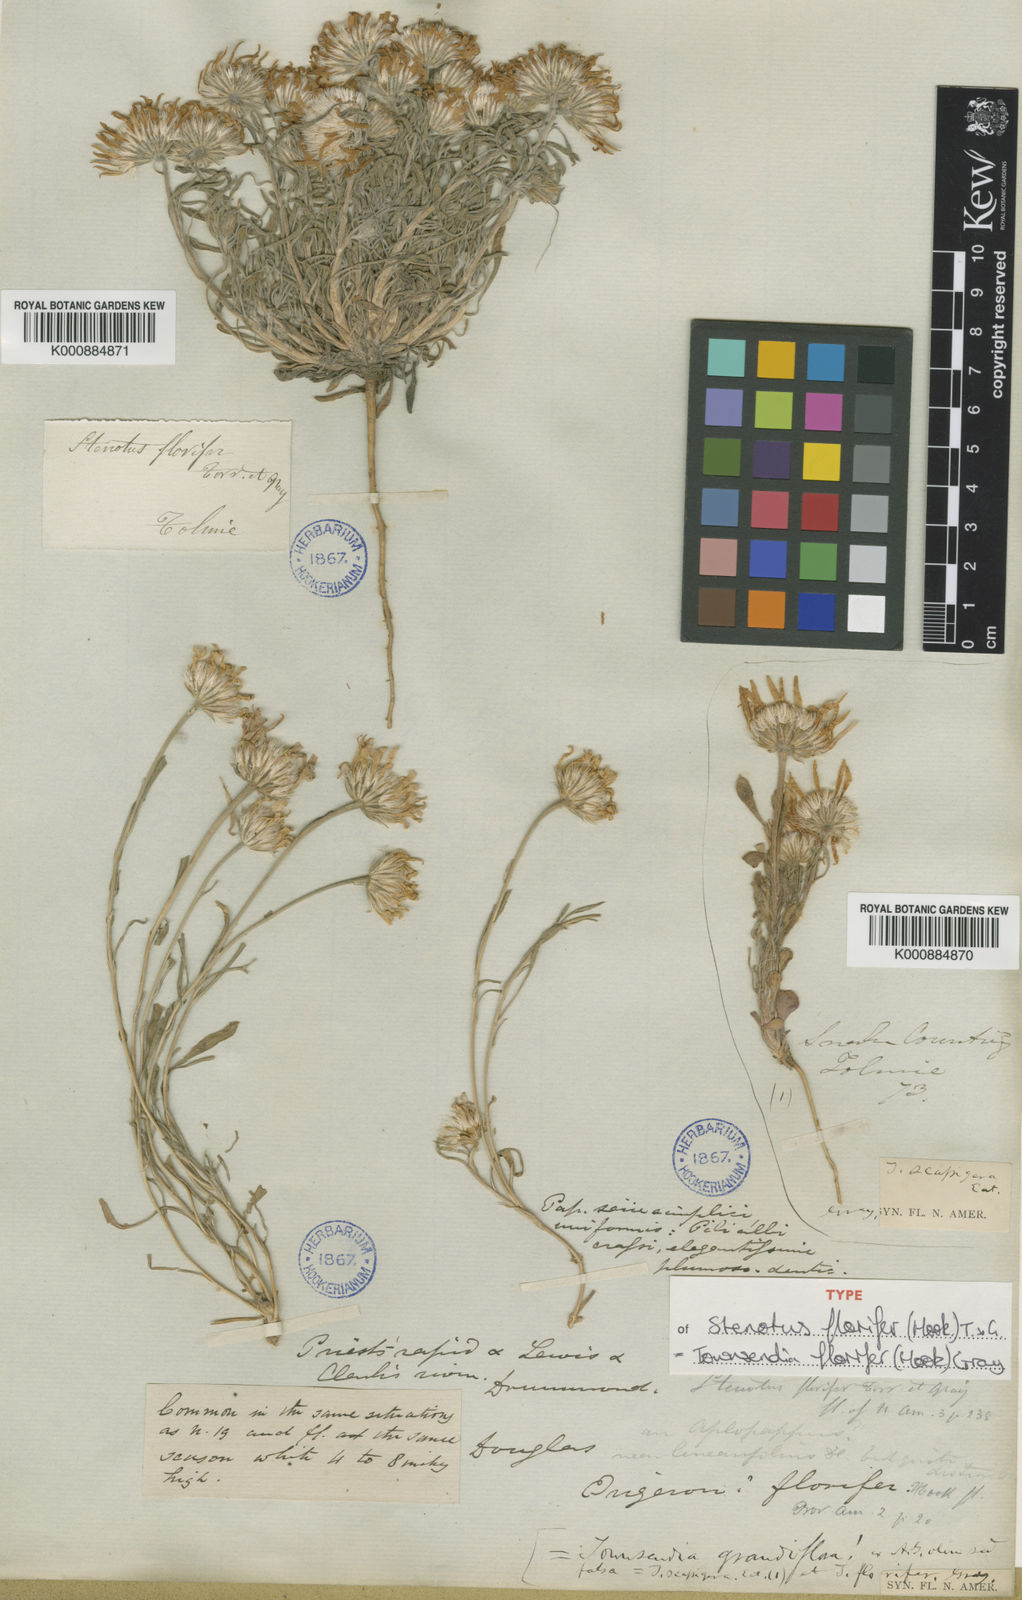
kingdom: Plantae
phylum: Tracheophyta
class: Magnoliopsida
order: Asterales
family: Asteraceae
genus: Townsendia
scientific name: Townsendia
